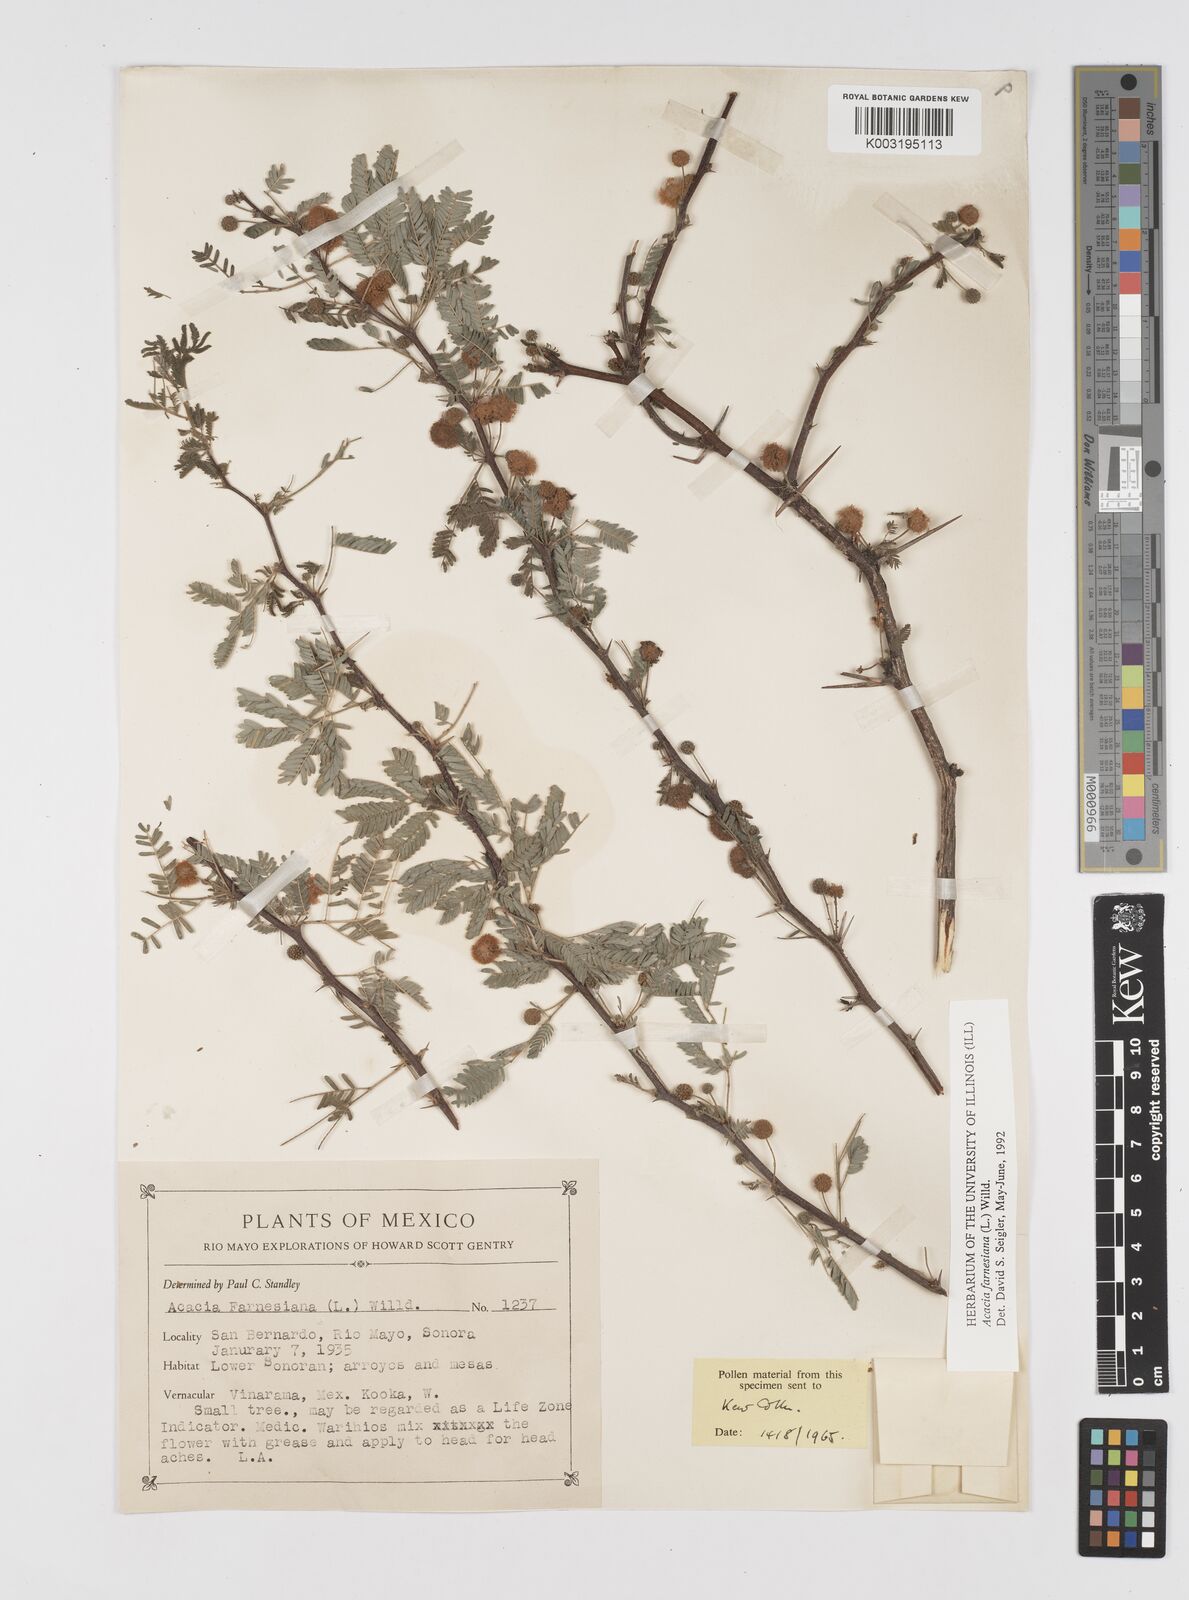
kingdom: Plantae
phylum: Tracheophyta
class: Magnoliopsida
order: Fabales
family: Fabaceae
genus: Vachellia
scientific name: Vachellia farnesiana
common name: Sweet acacia
